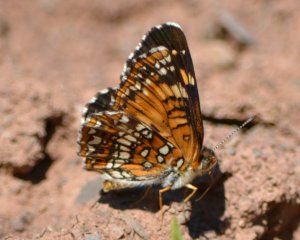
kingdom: Animalia
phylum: Arthropoda
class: Insecta
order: Lepidoptera
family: Nymphalidae
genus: Chlosyne
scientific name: Chlosyne harrisii
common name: Harris's Checkerspot
